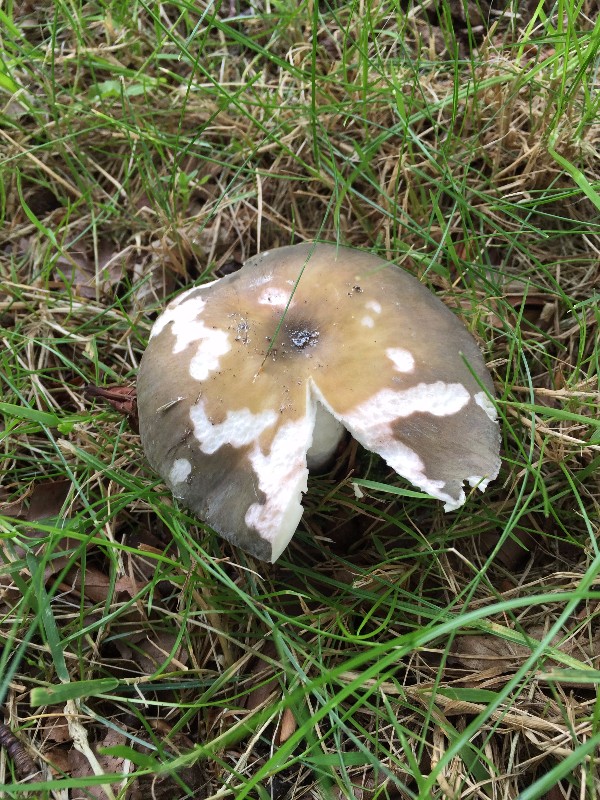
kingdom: Fungi
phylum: Basidiomycota
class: Agaricomycetes
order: Russulales
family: Russulaceae
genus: Russula
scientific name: Russula ionochlora
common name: violetgrøn skørhat
